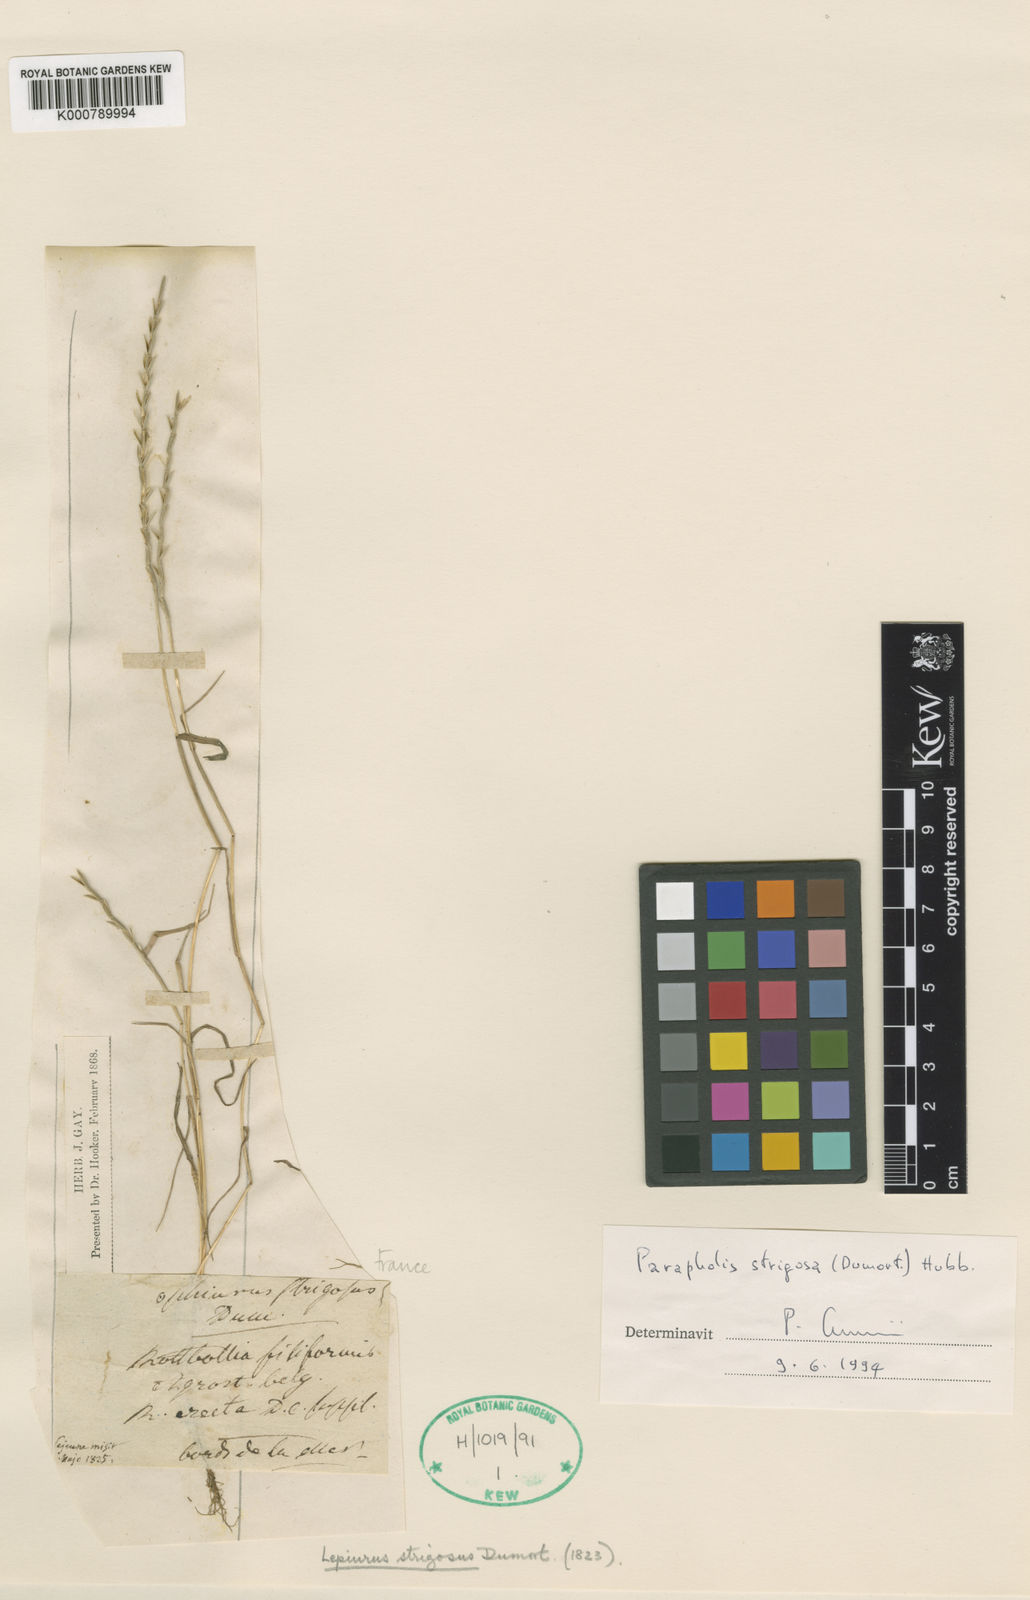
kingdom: Plantae
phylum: Tracheophyta
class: Liliopsida
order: Poales
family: Poaceae
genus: Parapholis
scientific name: Parapholis strigosa
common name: Hard-grass
